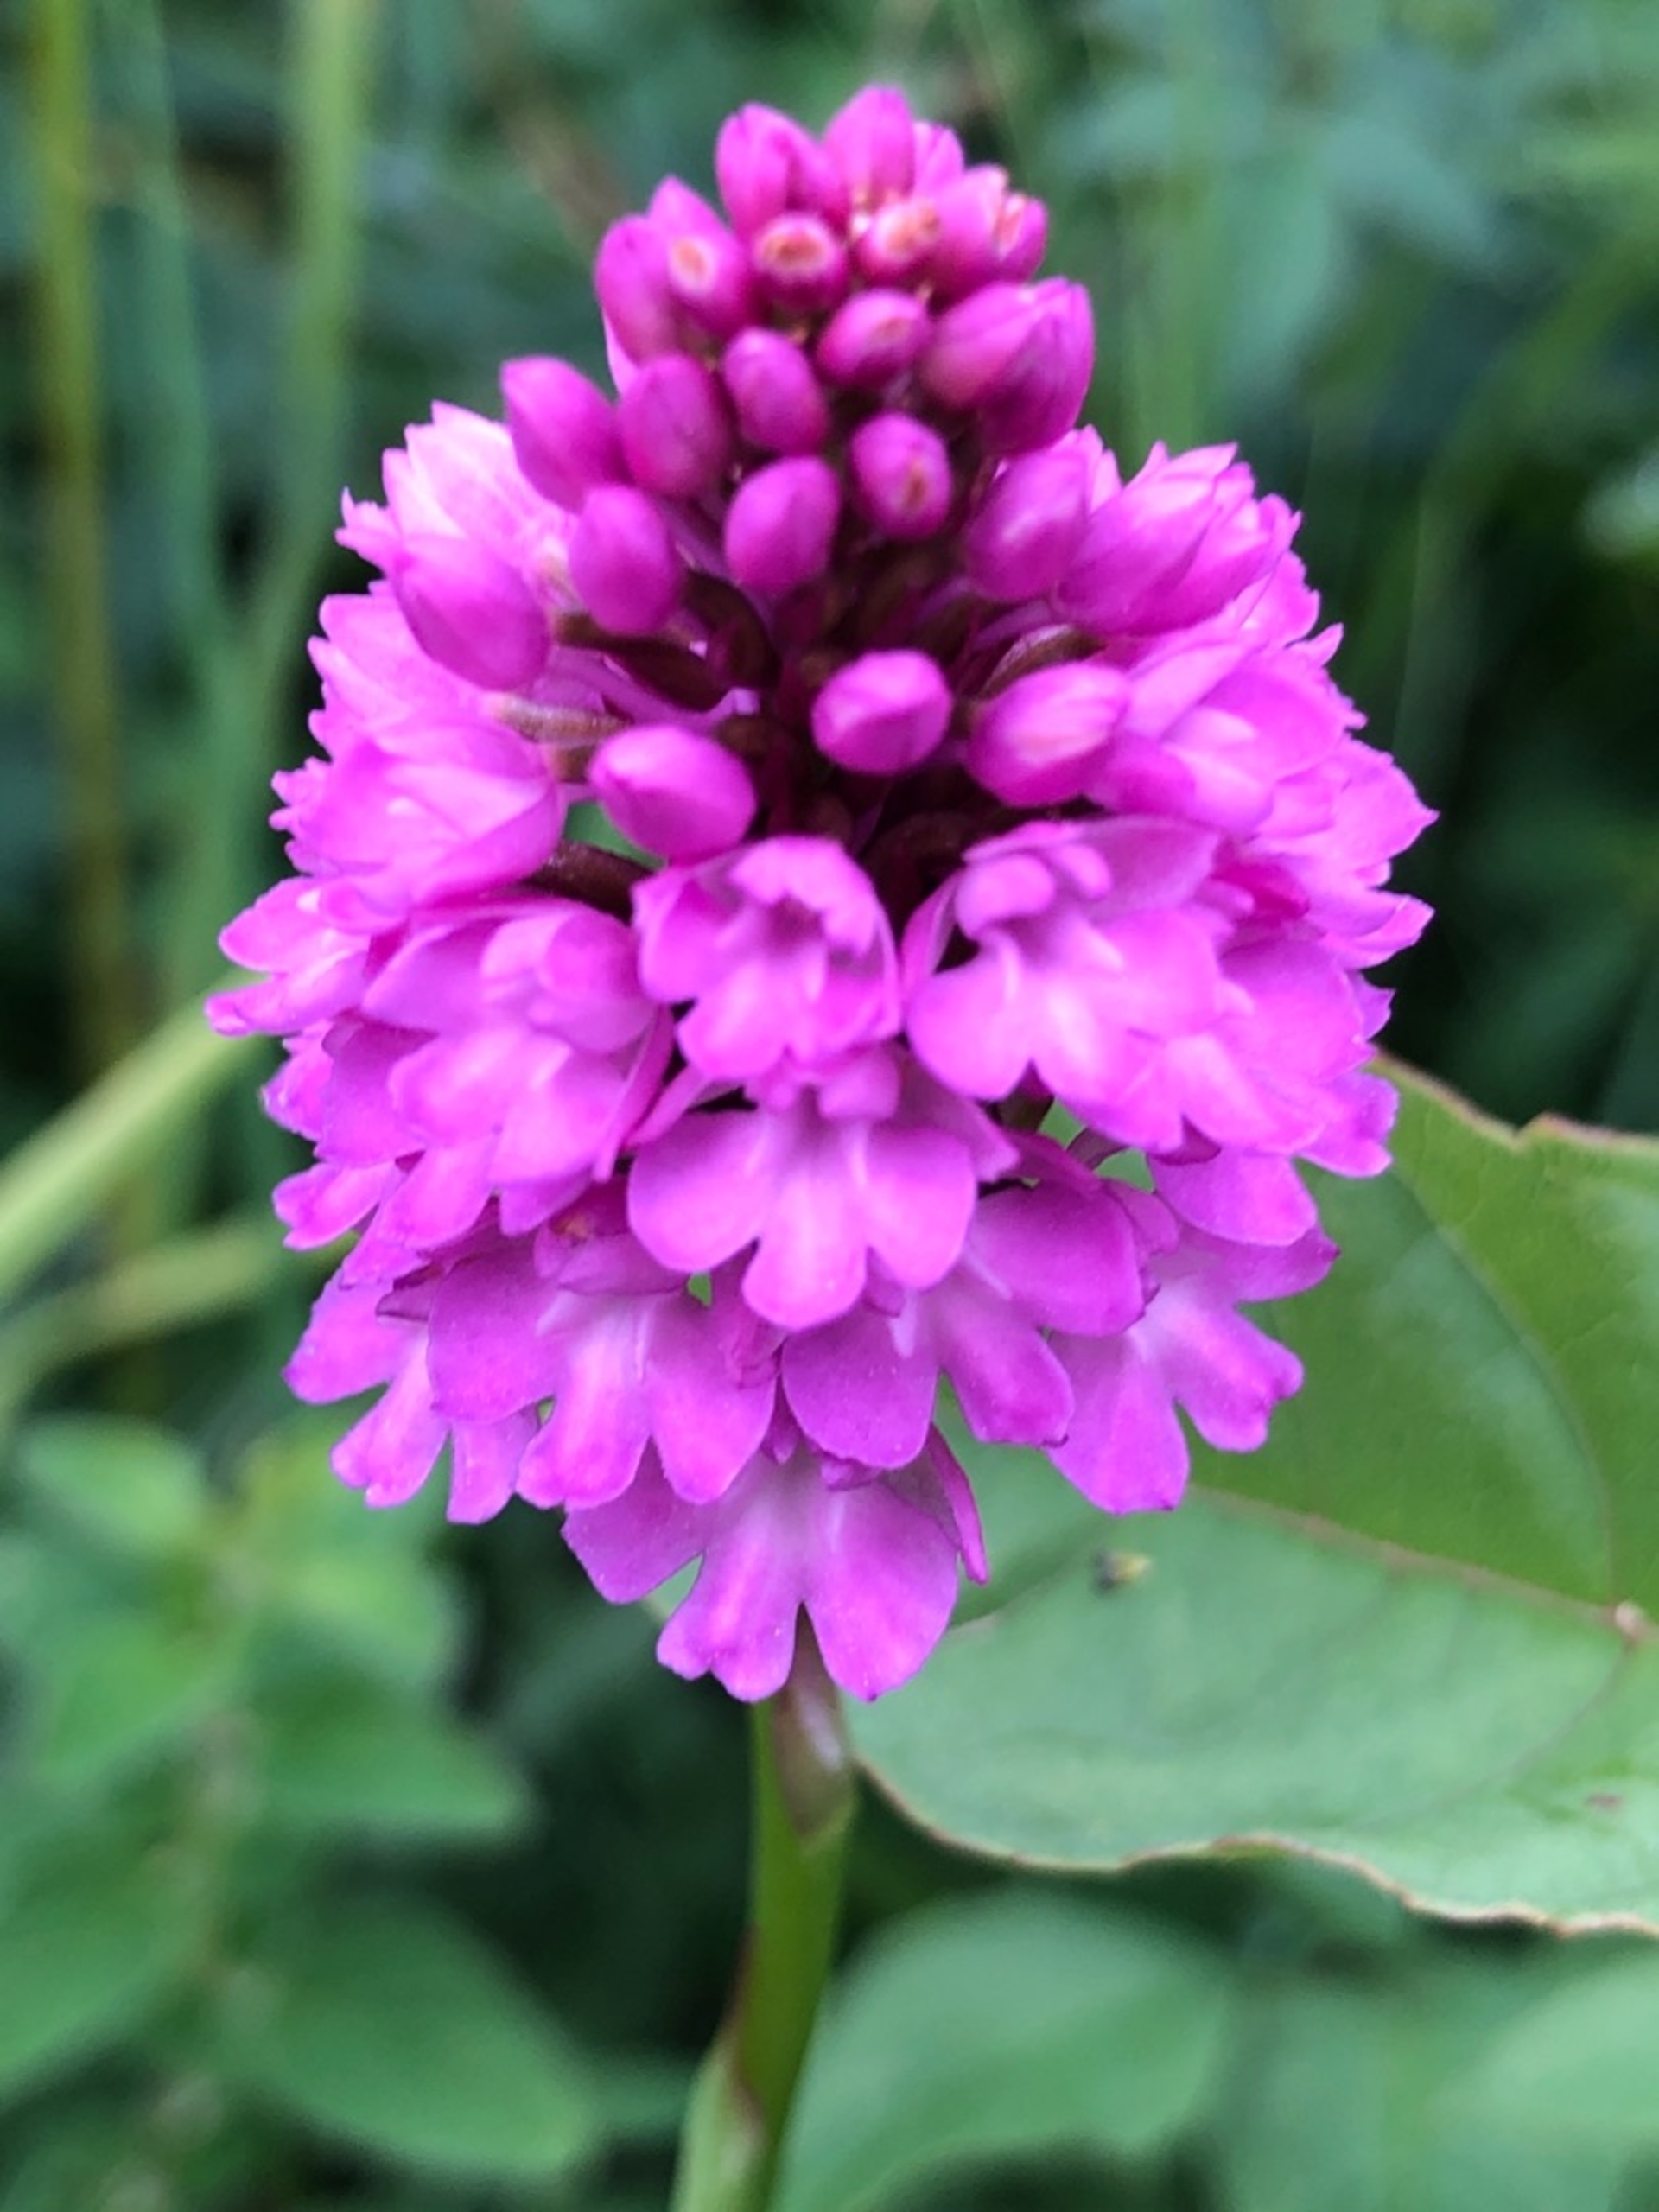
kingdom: Plantae
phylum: Tracheophyta
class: Liliopsida
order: Asparagales
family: Orchidaceae
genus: Anacamptis
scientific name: Anacamptis pyramidalis
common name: Horndrager
